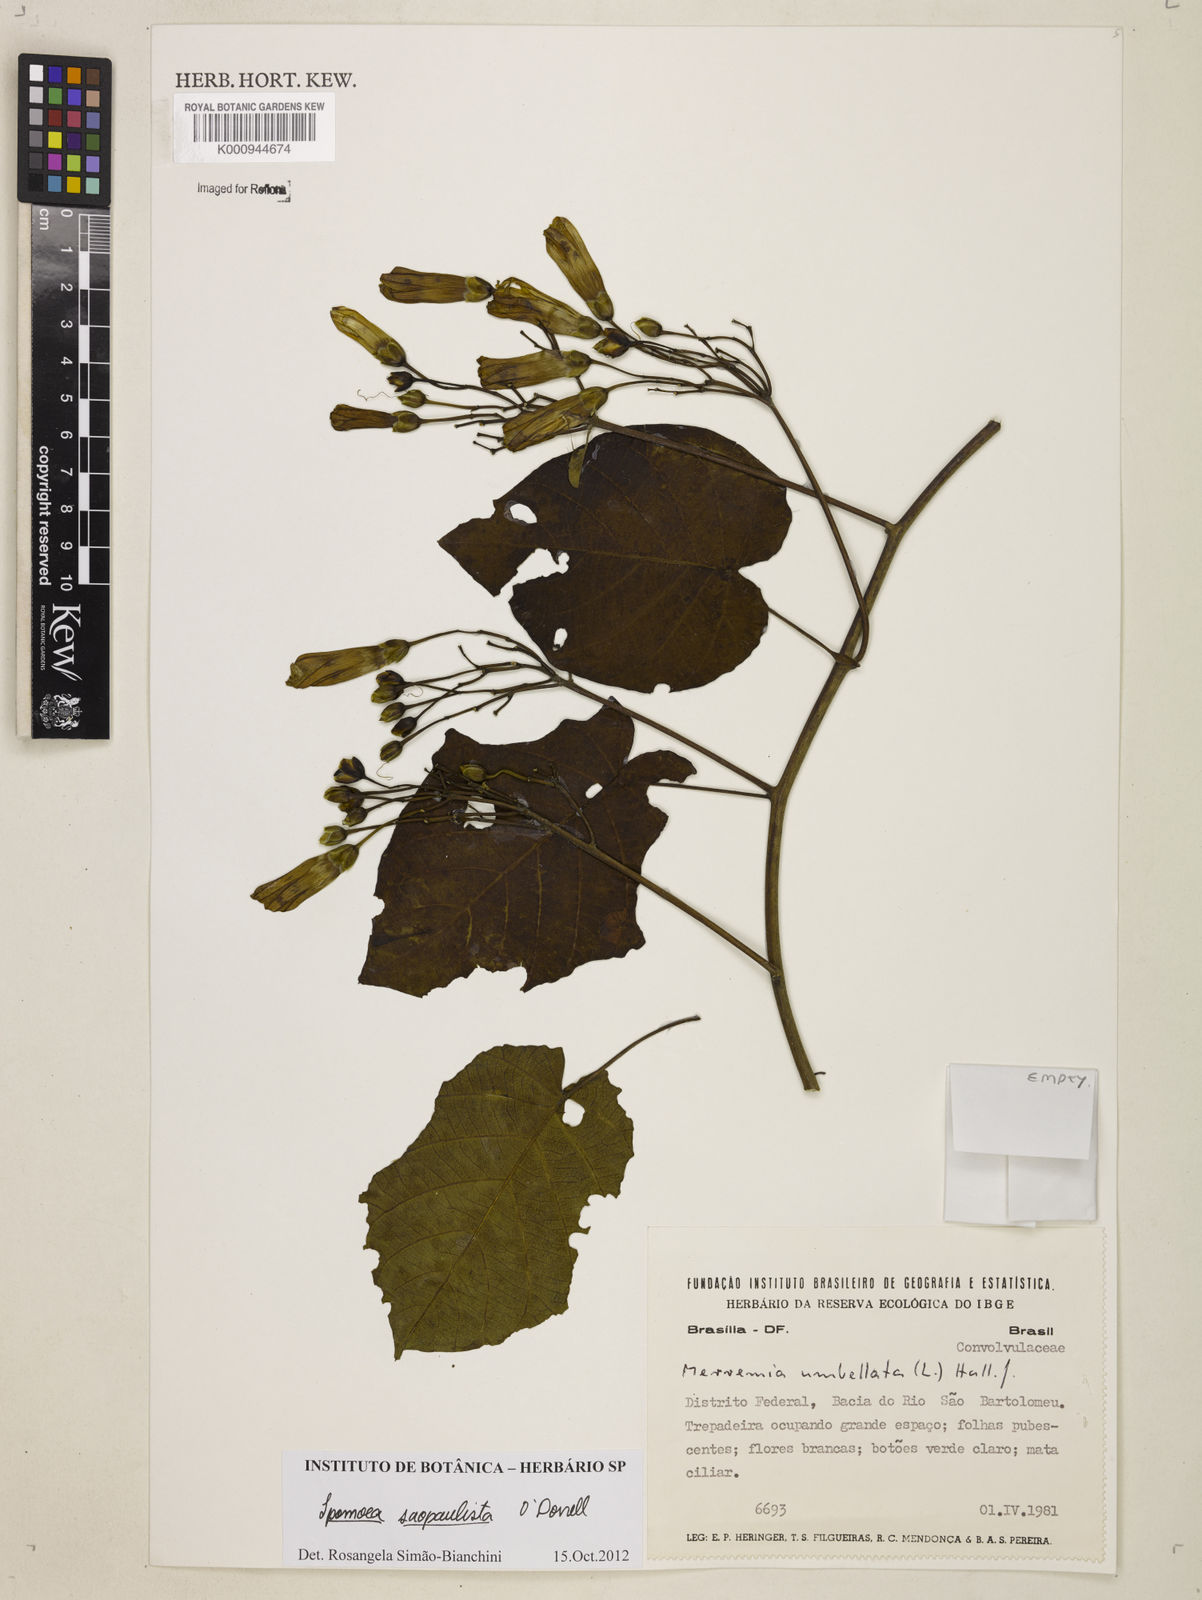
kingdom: Plantae
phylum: Tracheophyta
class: Magnoliopsida
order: Solanales
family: Convolvulaceae
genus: Ipomoea
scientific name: Ipomoea
